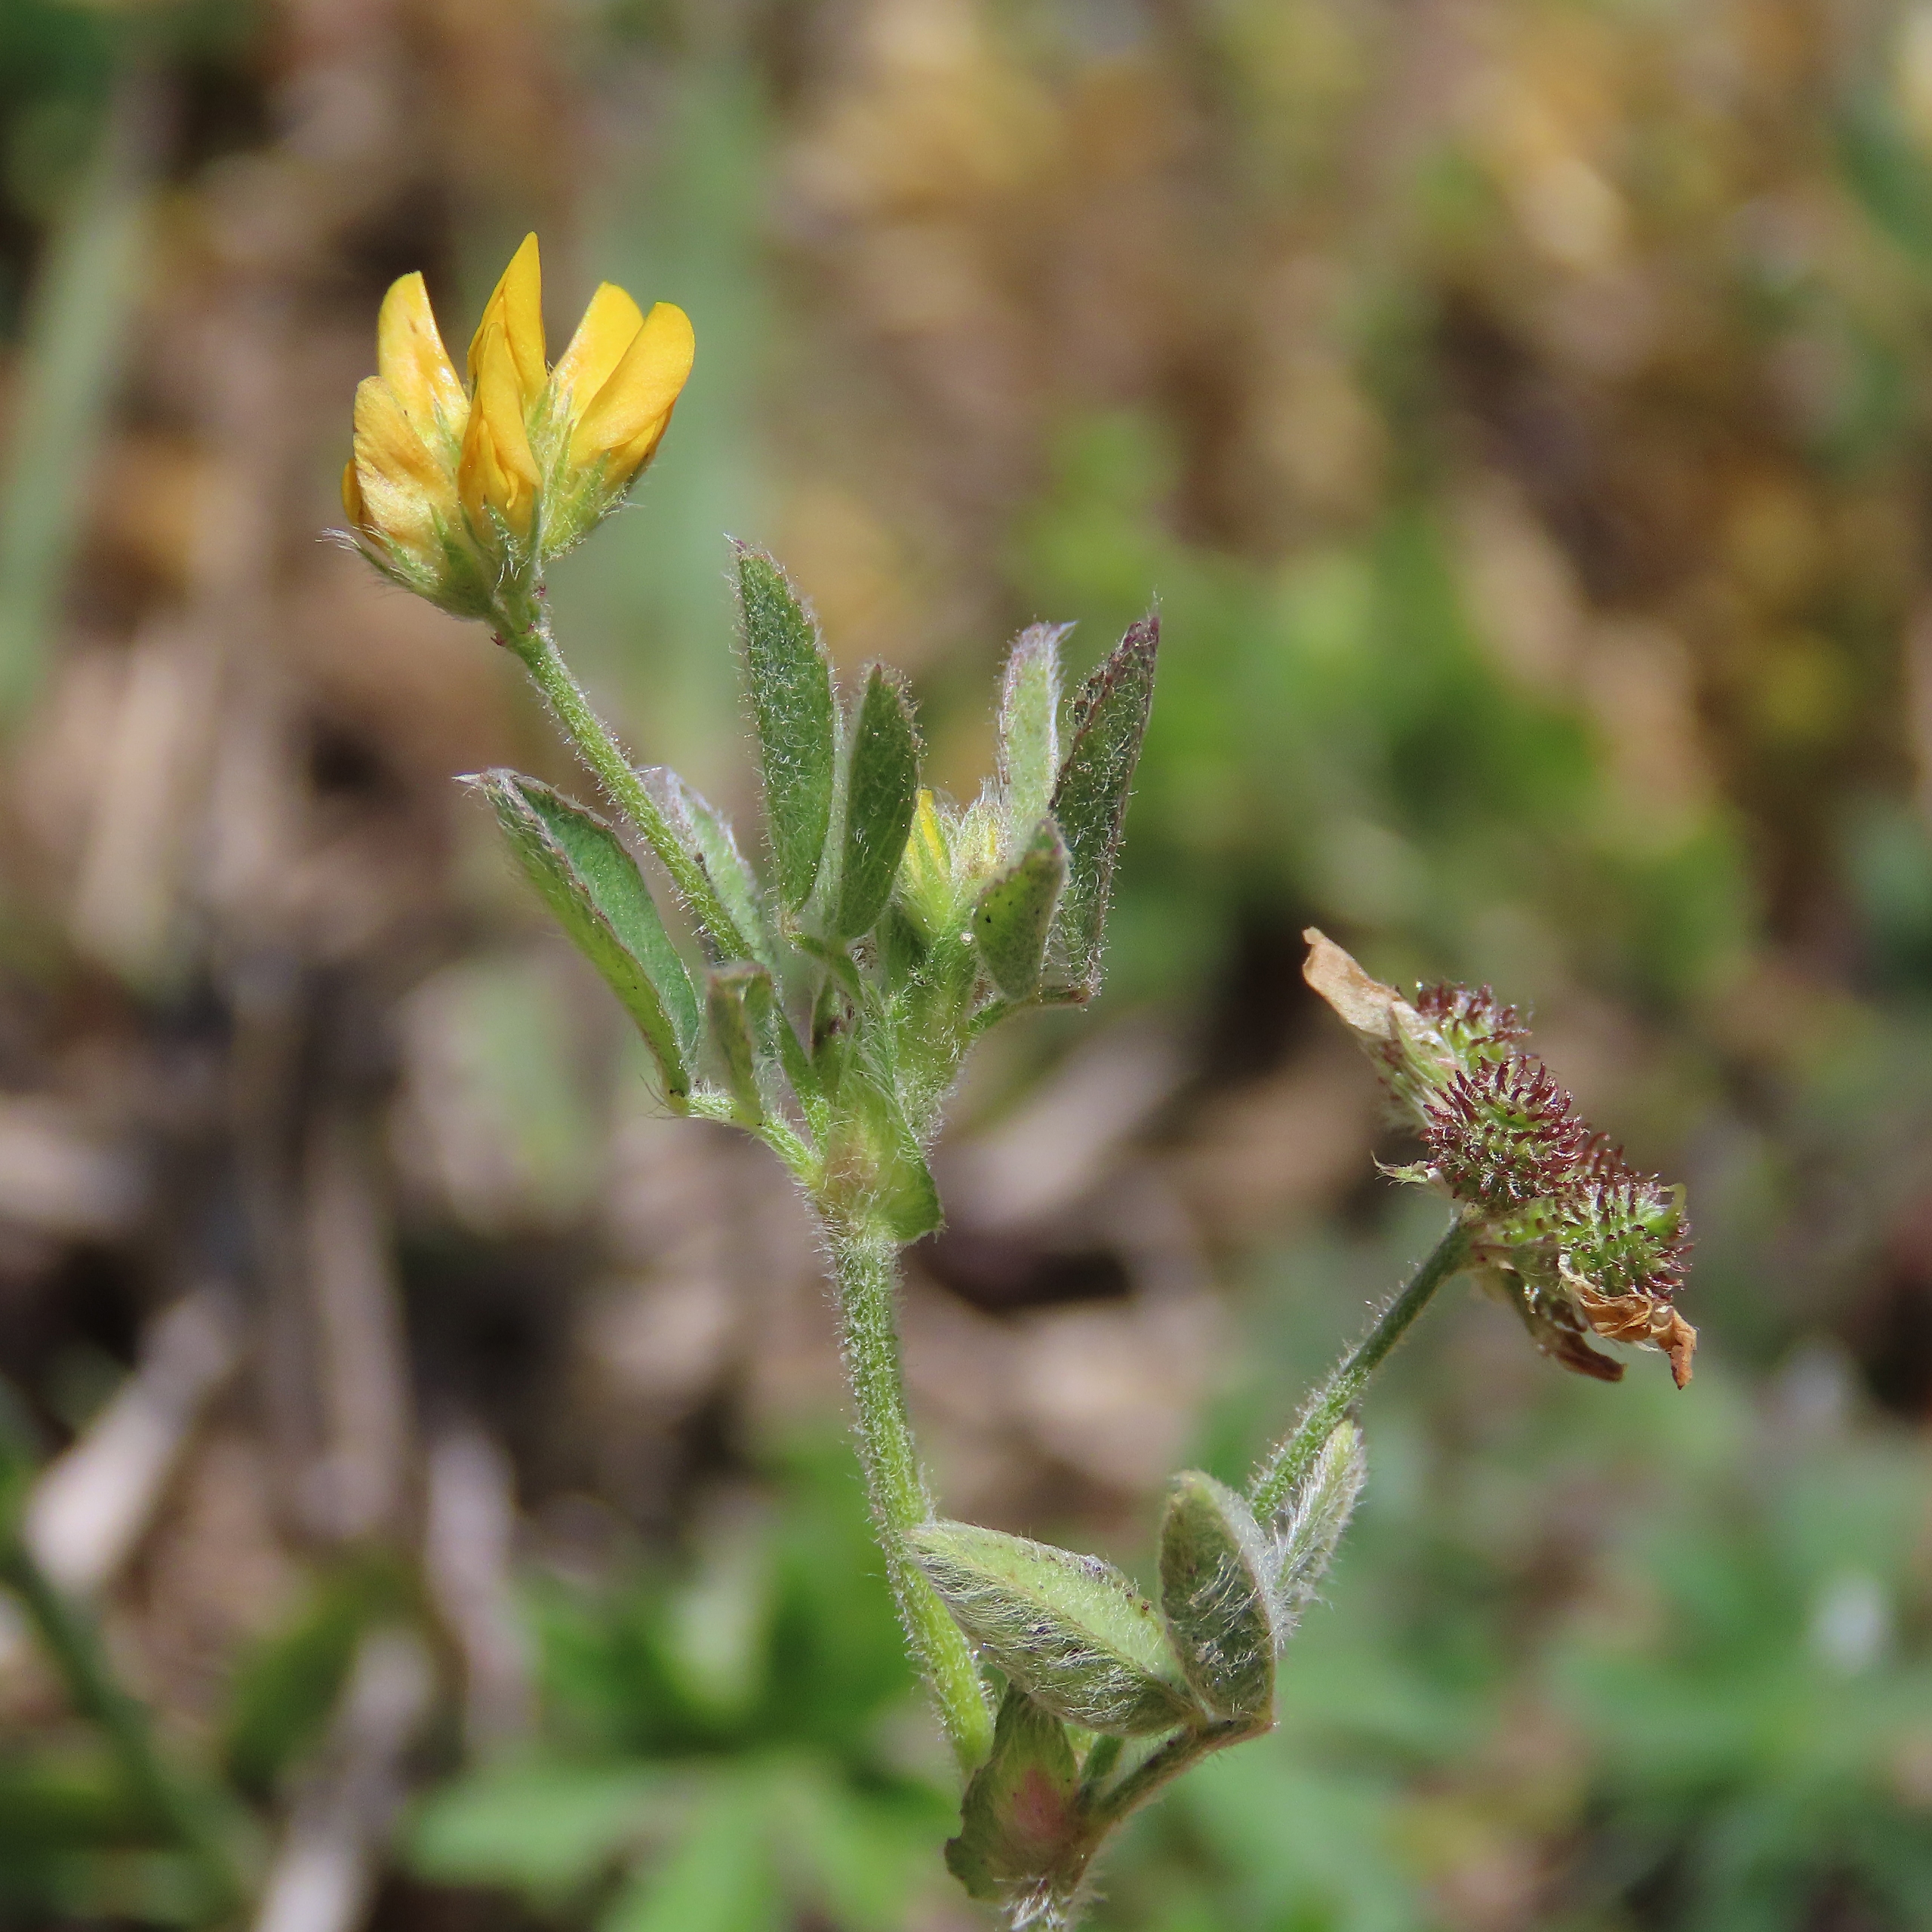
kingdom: Plantae
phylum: Tracheophyta
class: Magnoliopsida
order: Fabales
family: Fabaceae
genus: Medicago
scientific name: Medicago minima
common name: Liden sneglebælg
